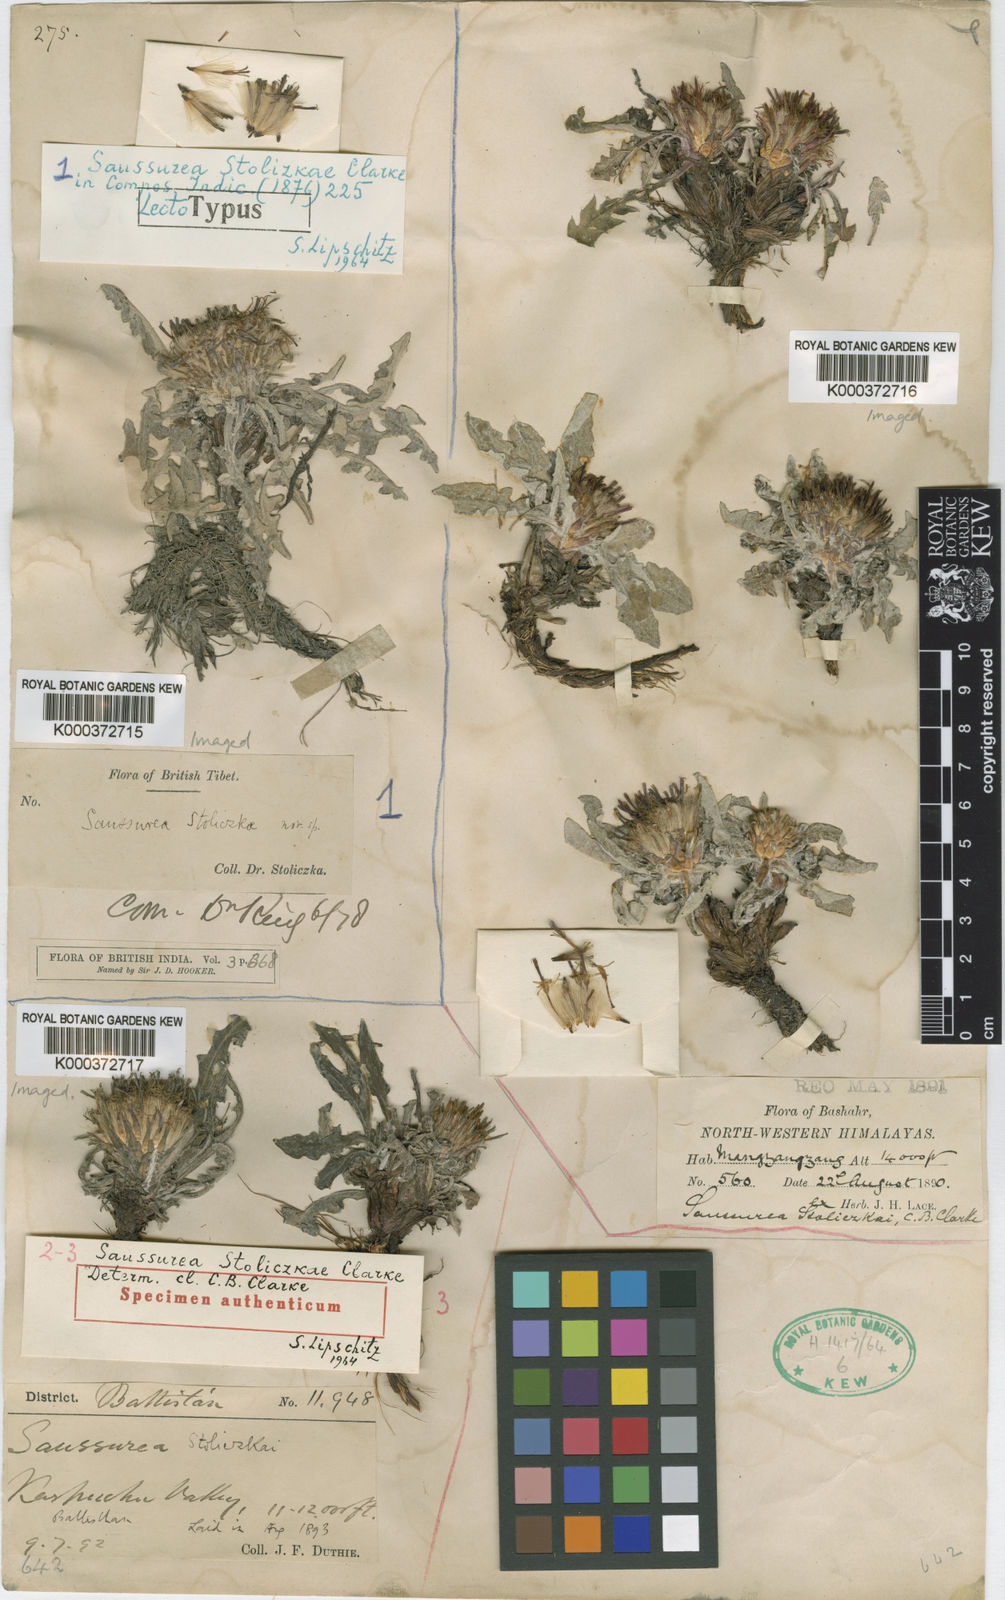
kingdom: Plantae
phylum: Tracheophyta
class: Magnoliopsida
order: Asterales
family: Asteraceae
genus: Saussurea
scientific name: Saussurea stoliczkae
